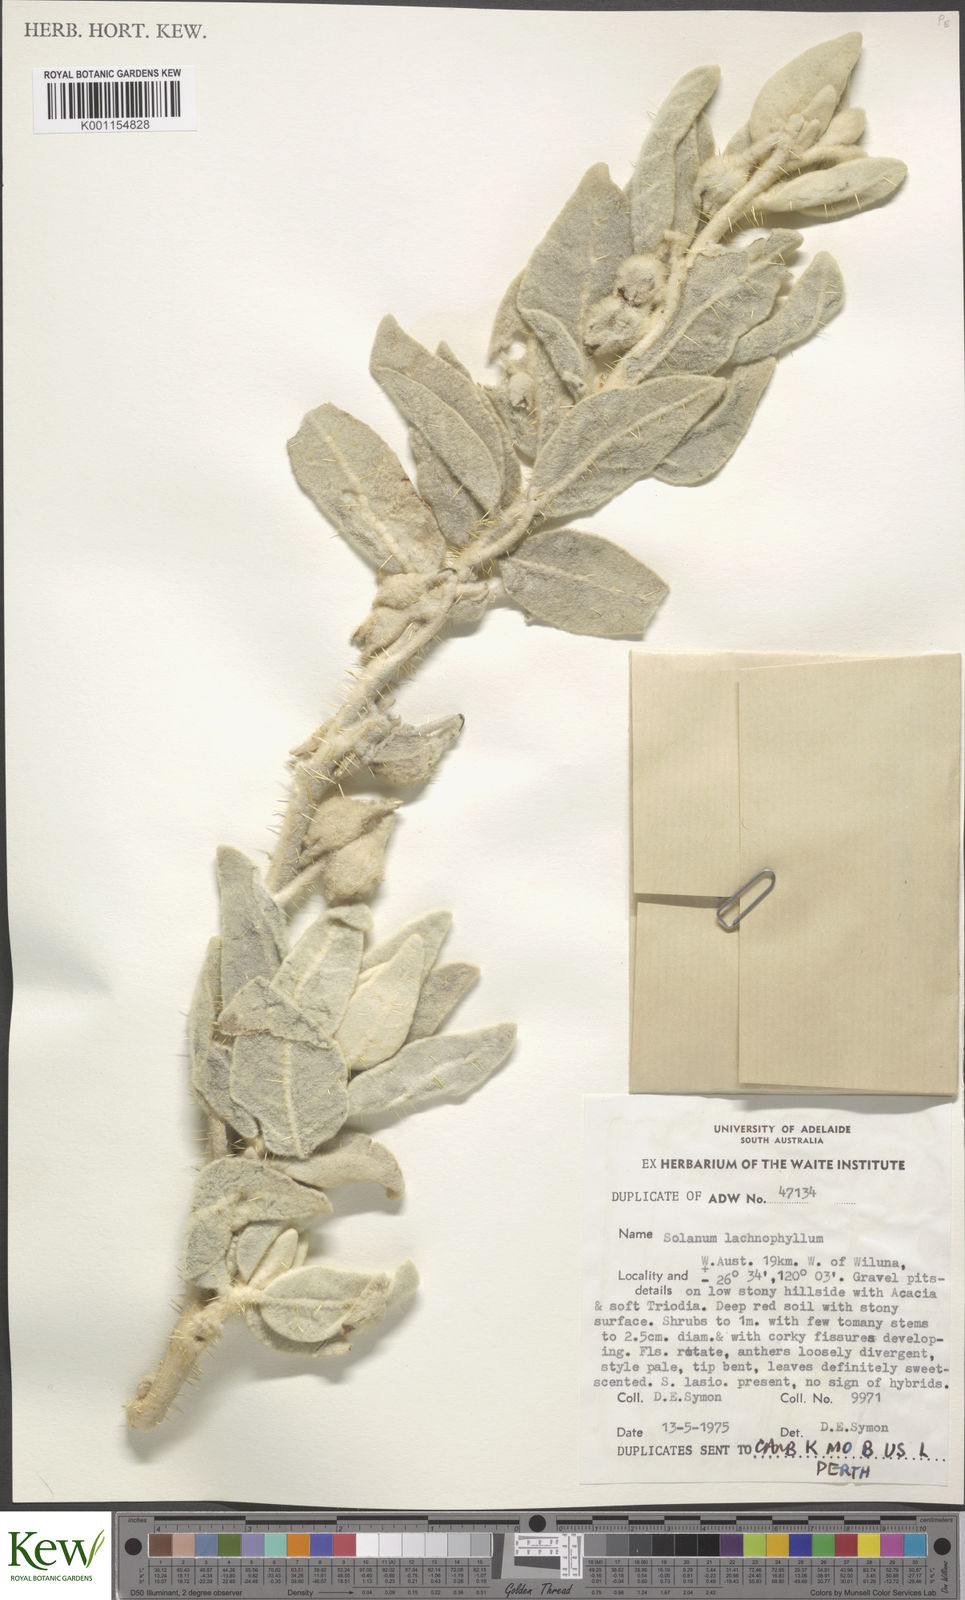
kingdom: Plantae
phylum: Tracheophyta
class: Magnoliopsida
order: Solanales
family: Solanaceae
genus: Solanum
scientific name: Solanum lachnophyllum
